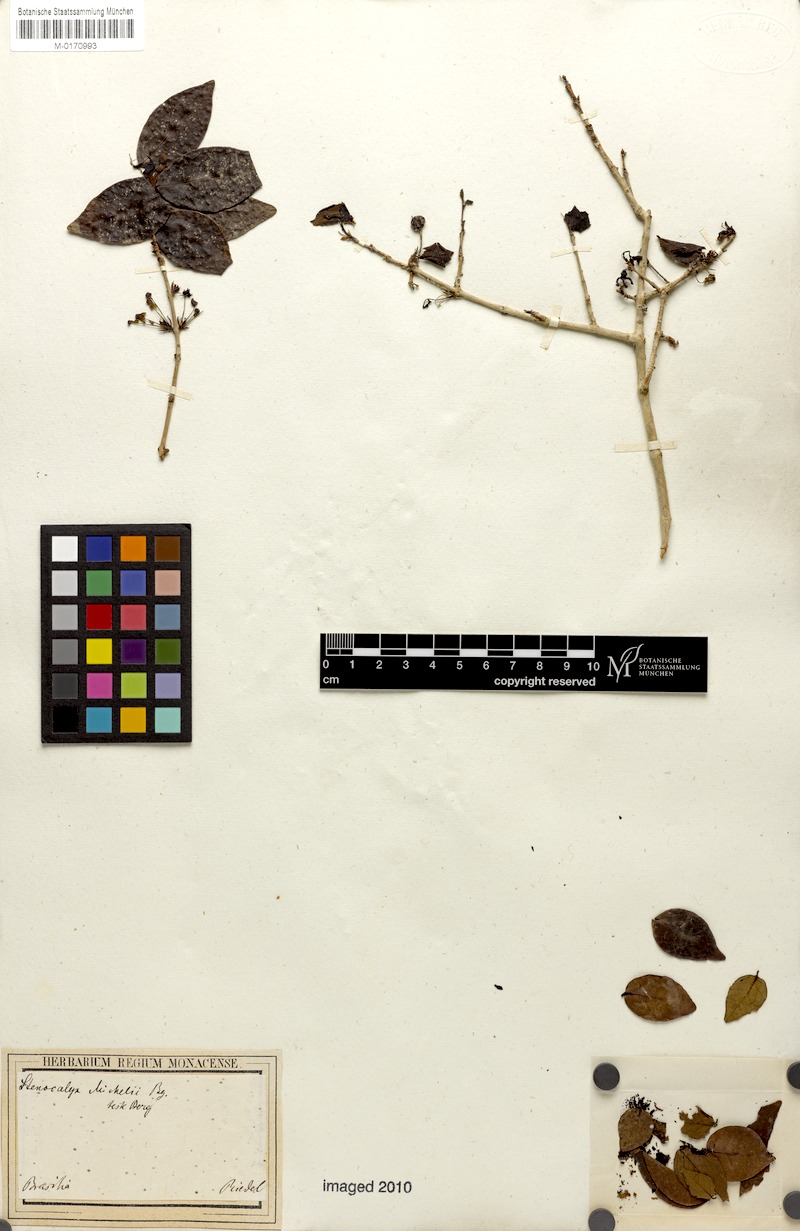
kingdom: Plantae
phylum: Tracheophyta
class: Magnoliopsida
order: Myrtales
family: Myrtaceae
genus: Eugenia
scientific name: Eugenia uniflora
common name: Surinam cherry
